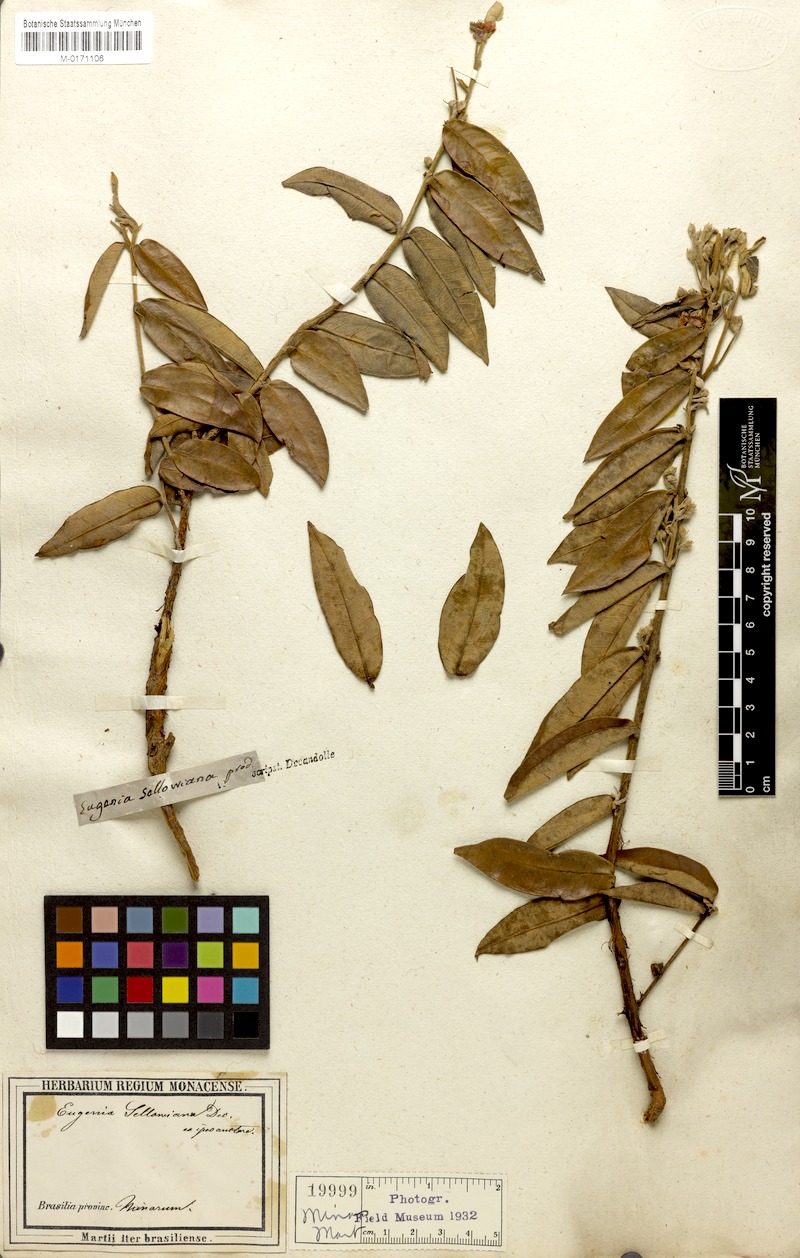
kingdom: Plantae
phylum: Tracheophyta
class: Magnoliopsida
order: Myrtales
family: Myrtaceae
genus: Psidium
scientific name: Psidium salutare
